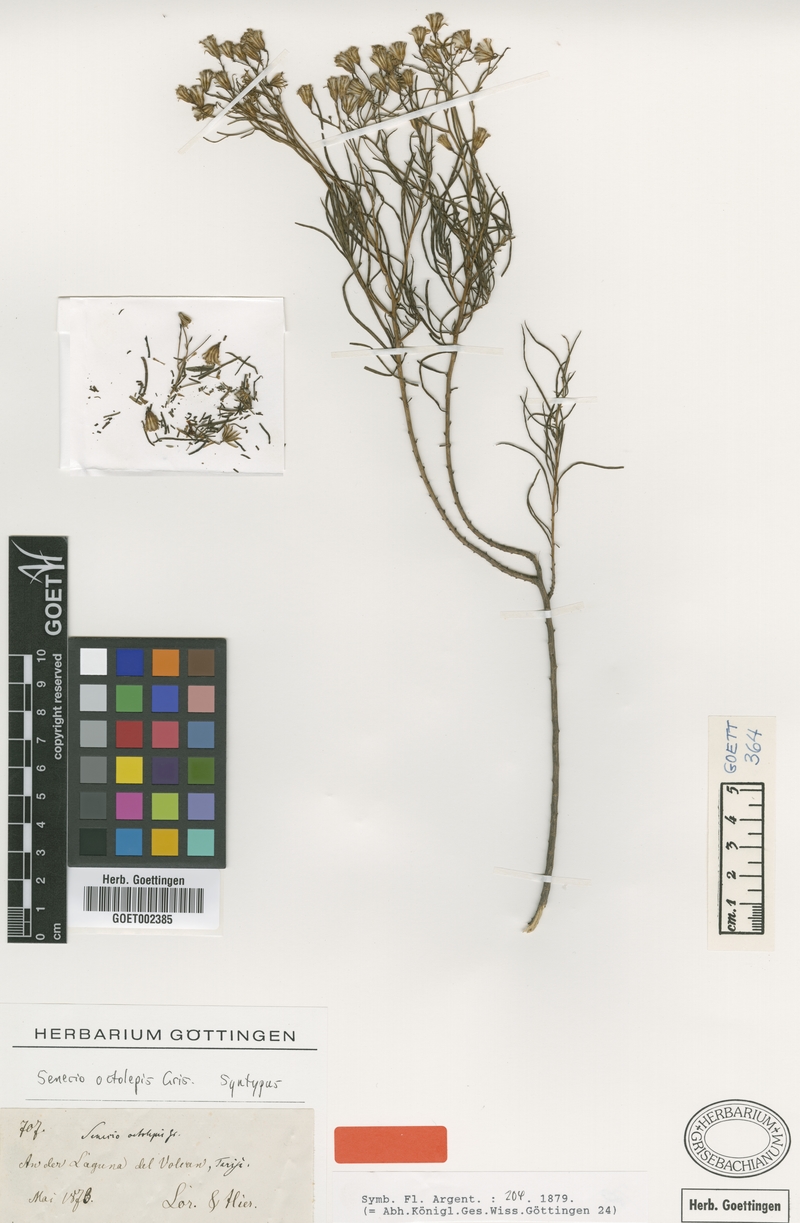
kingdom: Plantae
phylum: Tracheophyta
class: Magnoliopsida
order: Asterales
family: Asteraceae
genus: Senecio
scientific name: Senecio octolepis
